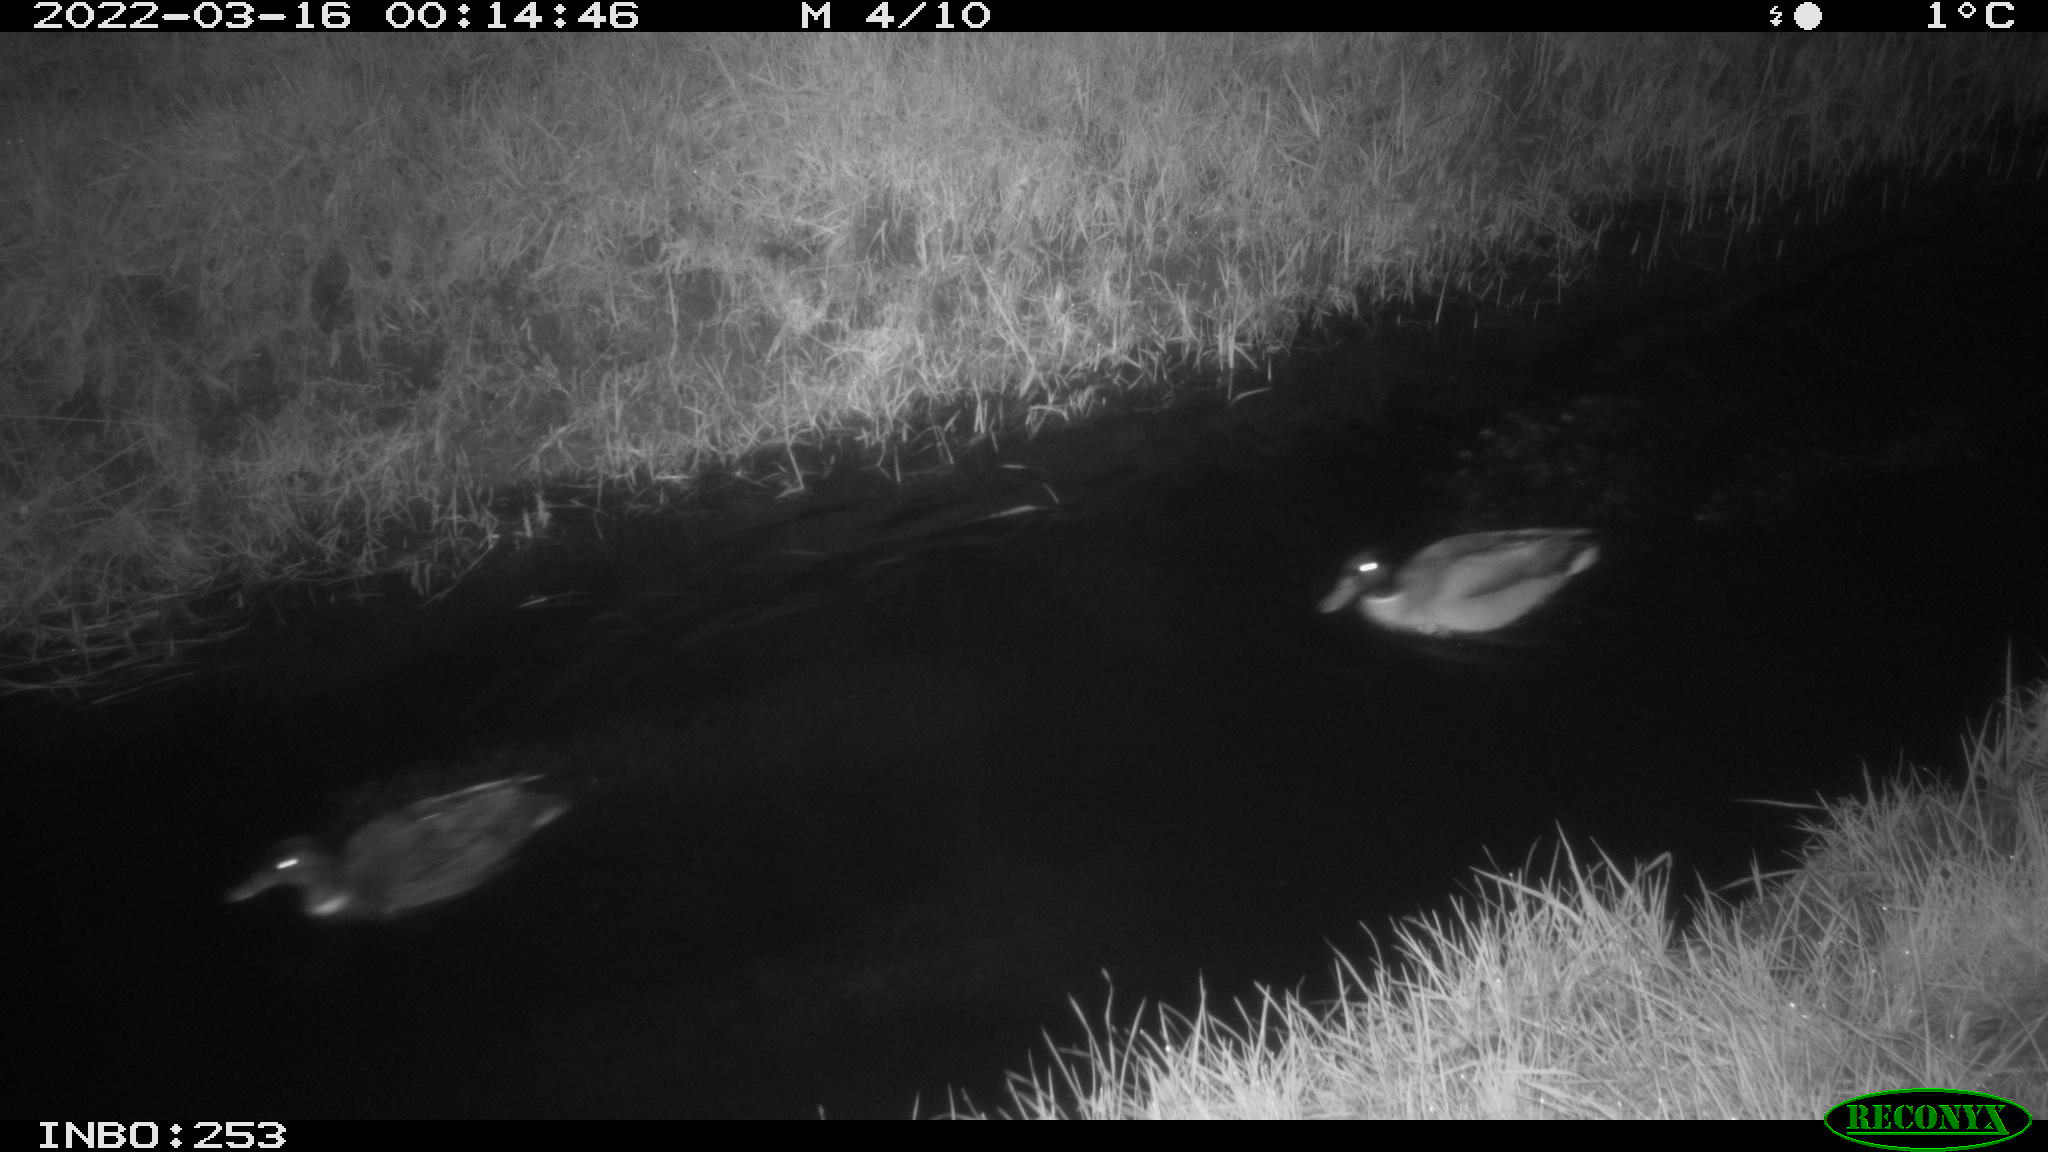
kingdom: Animalia
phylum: Chordata
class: Aves
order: Anseriformes
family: Anatidae
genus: Anas
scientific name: Anas platyrhynchos
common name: Mallard
